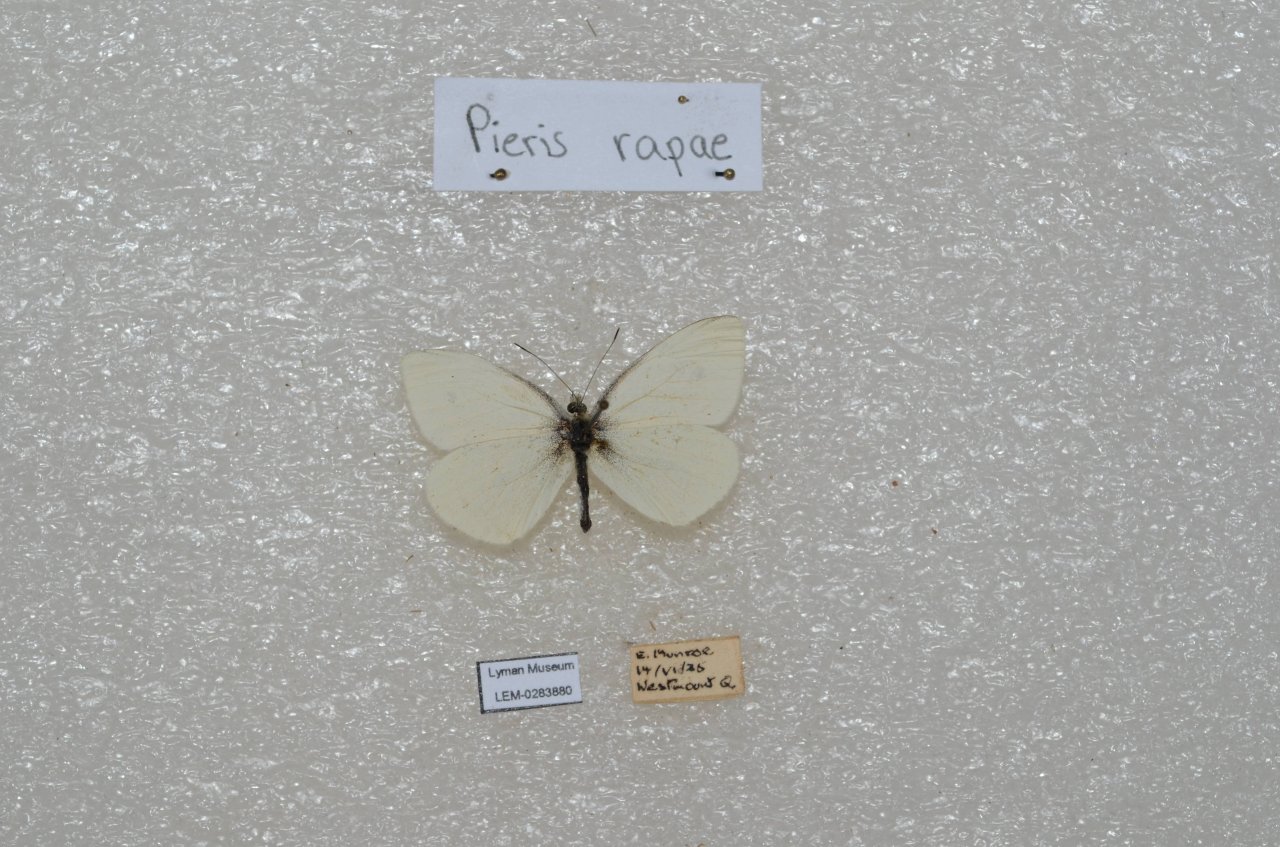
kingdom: Animalia
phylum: Arthropoda
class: Insecta
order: Lepidoptera
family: Pieridae
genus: Pieris
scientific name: Pieris rapae
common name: Cabbage White
